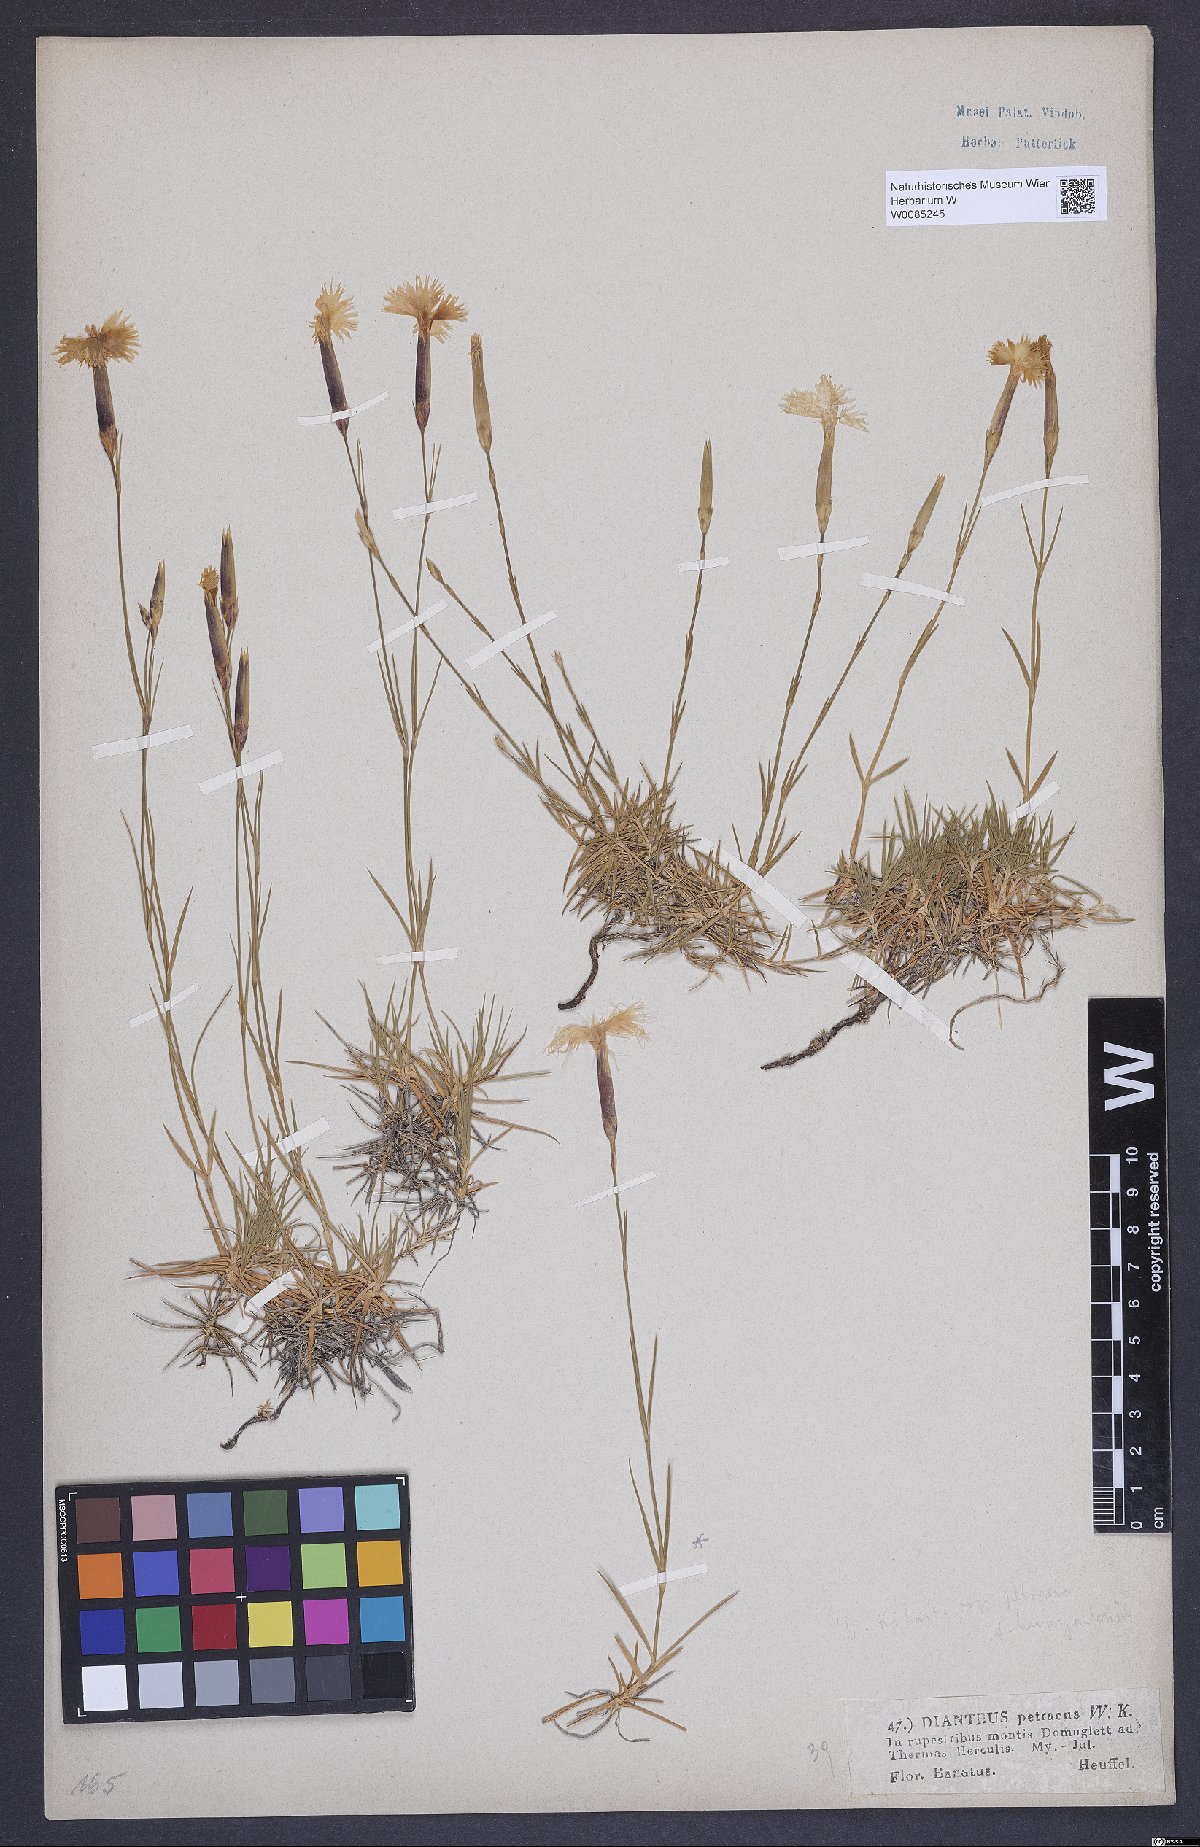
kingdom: Plantae
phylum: Tracheophyta
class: Magnoliopsida
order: Caryophyllales
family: Caryophyllaceae
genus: Dianthus
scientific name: Dianthus petraeus
